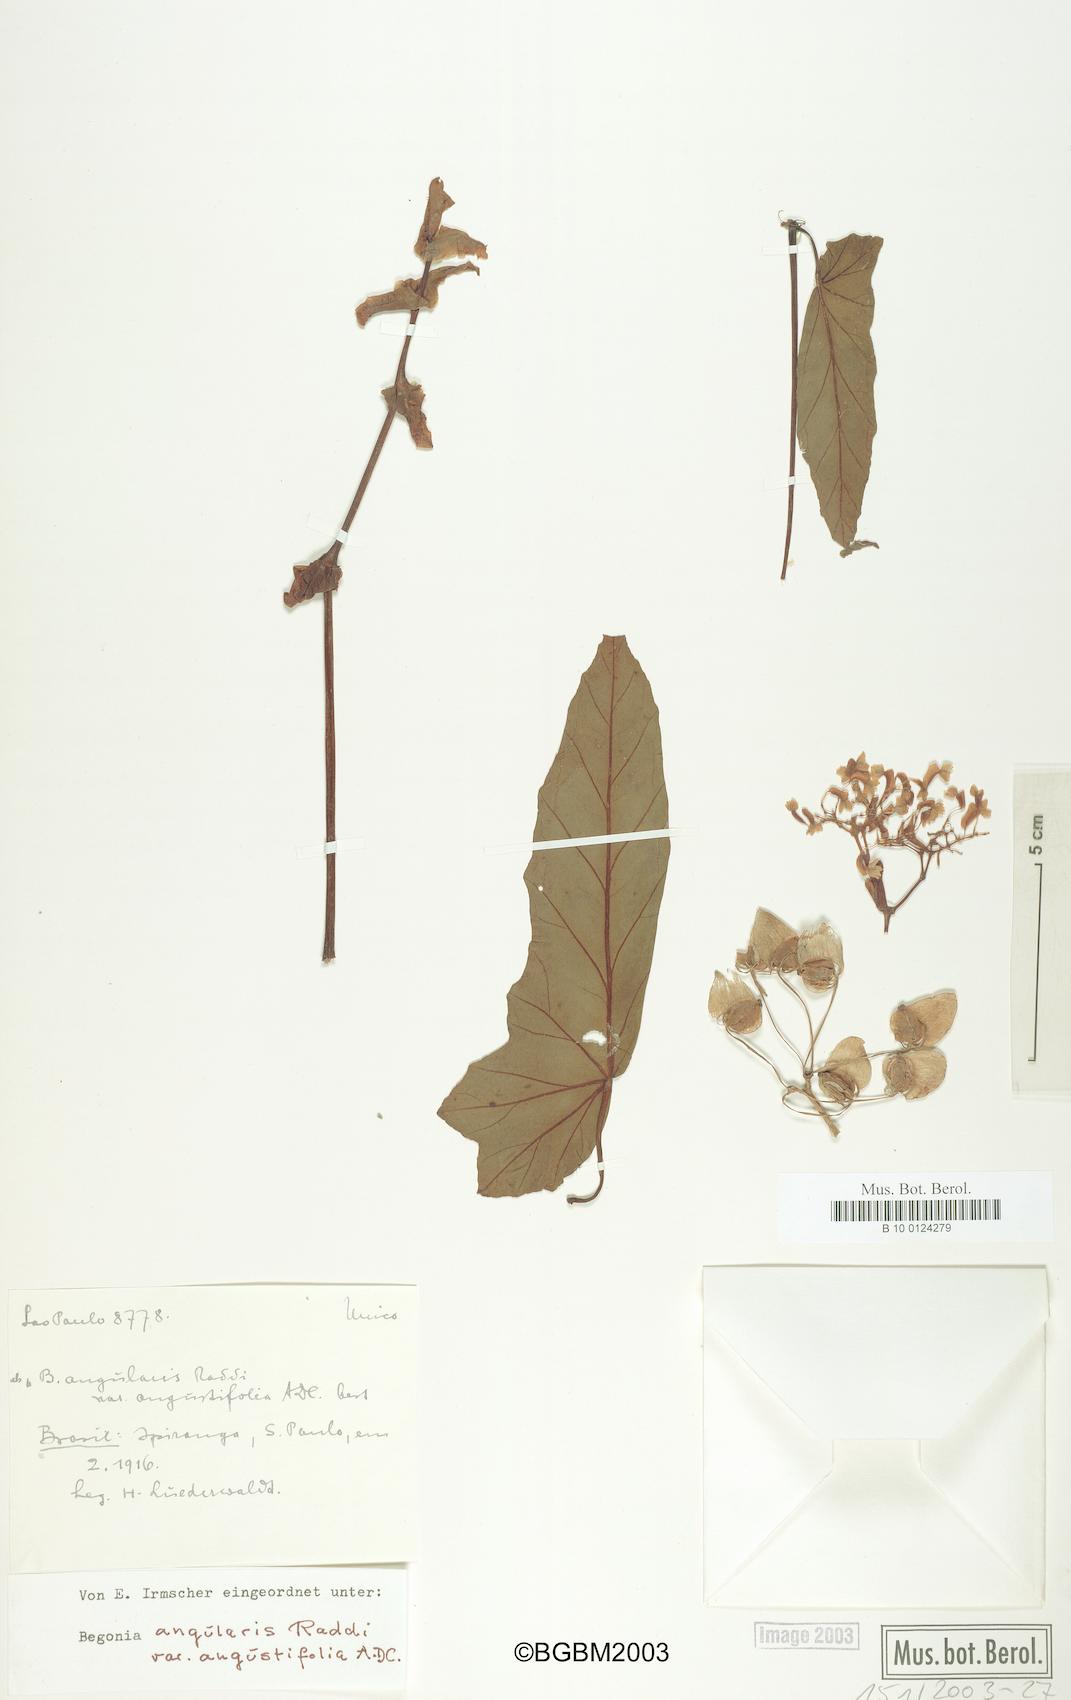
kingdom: Plantae
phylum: Tracheophyta
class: Magnoliopsida
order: Cucurbitales
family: Begoniaceae
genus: Begonia
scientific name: Begonia angularis
